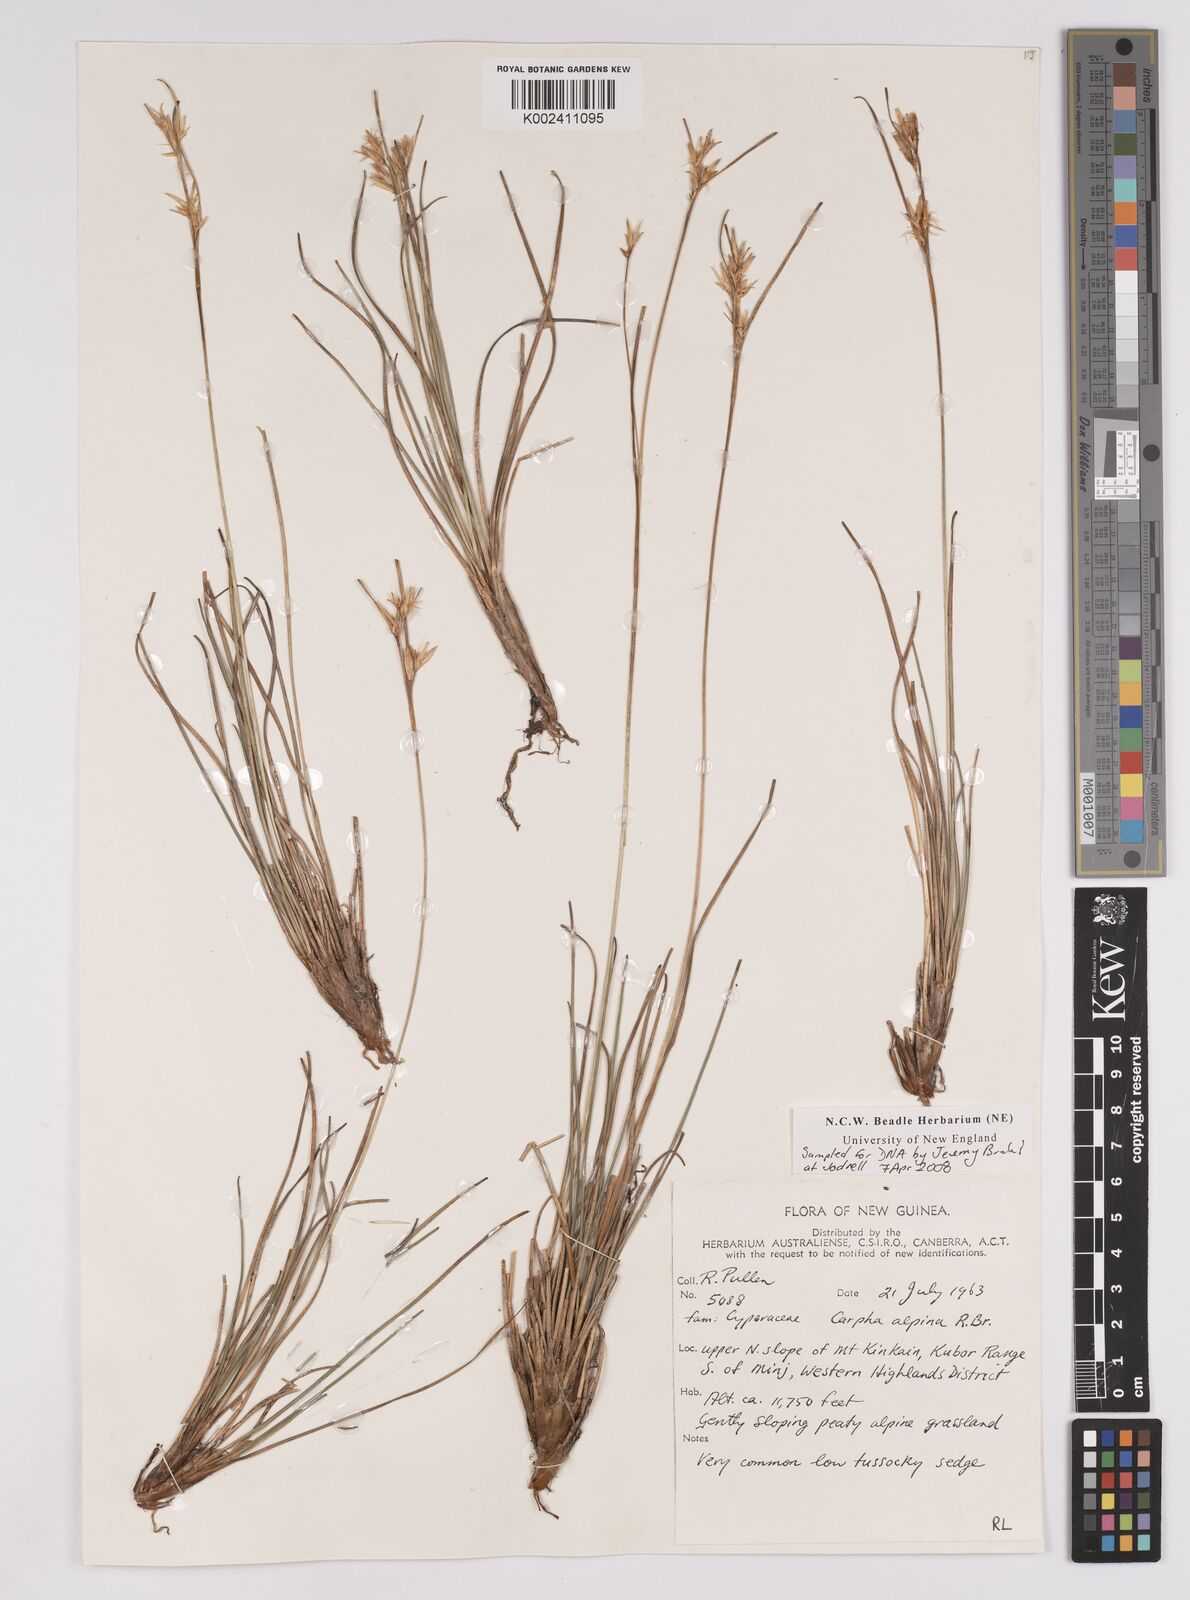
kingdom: Plantae
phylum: Tracheophyta
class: Liliopsida
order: Poales
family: Cyperaceae
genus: Carpha
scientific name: Carpha alpina
